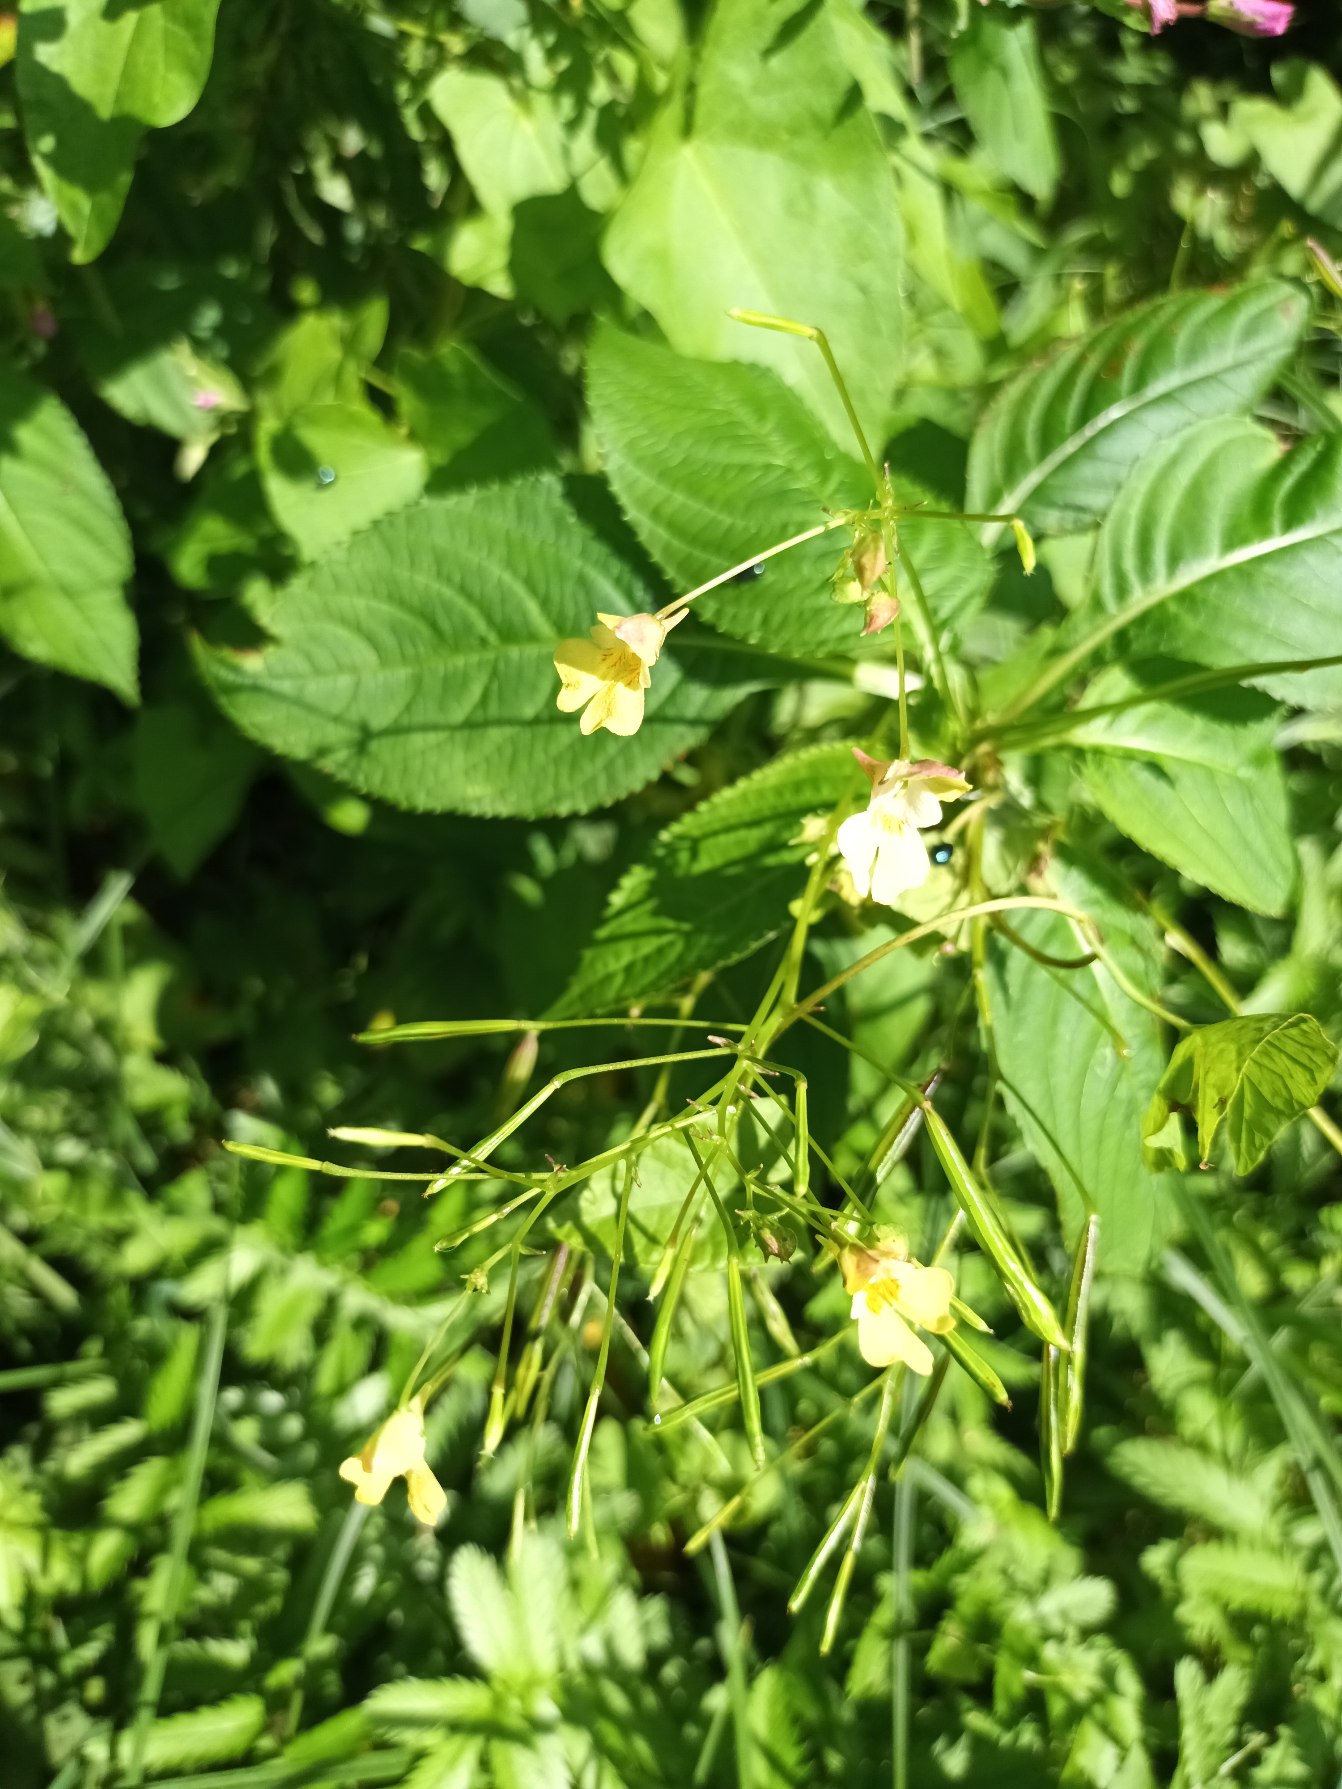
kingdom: Plantae
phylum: Tracheophyta
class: Magnoliopsida
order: Ericales
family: Balsaminaceae
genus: Impatiens
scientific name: Impatiens parviflora
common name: Småblomstret balsamin
